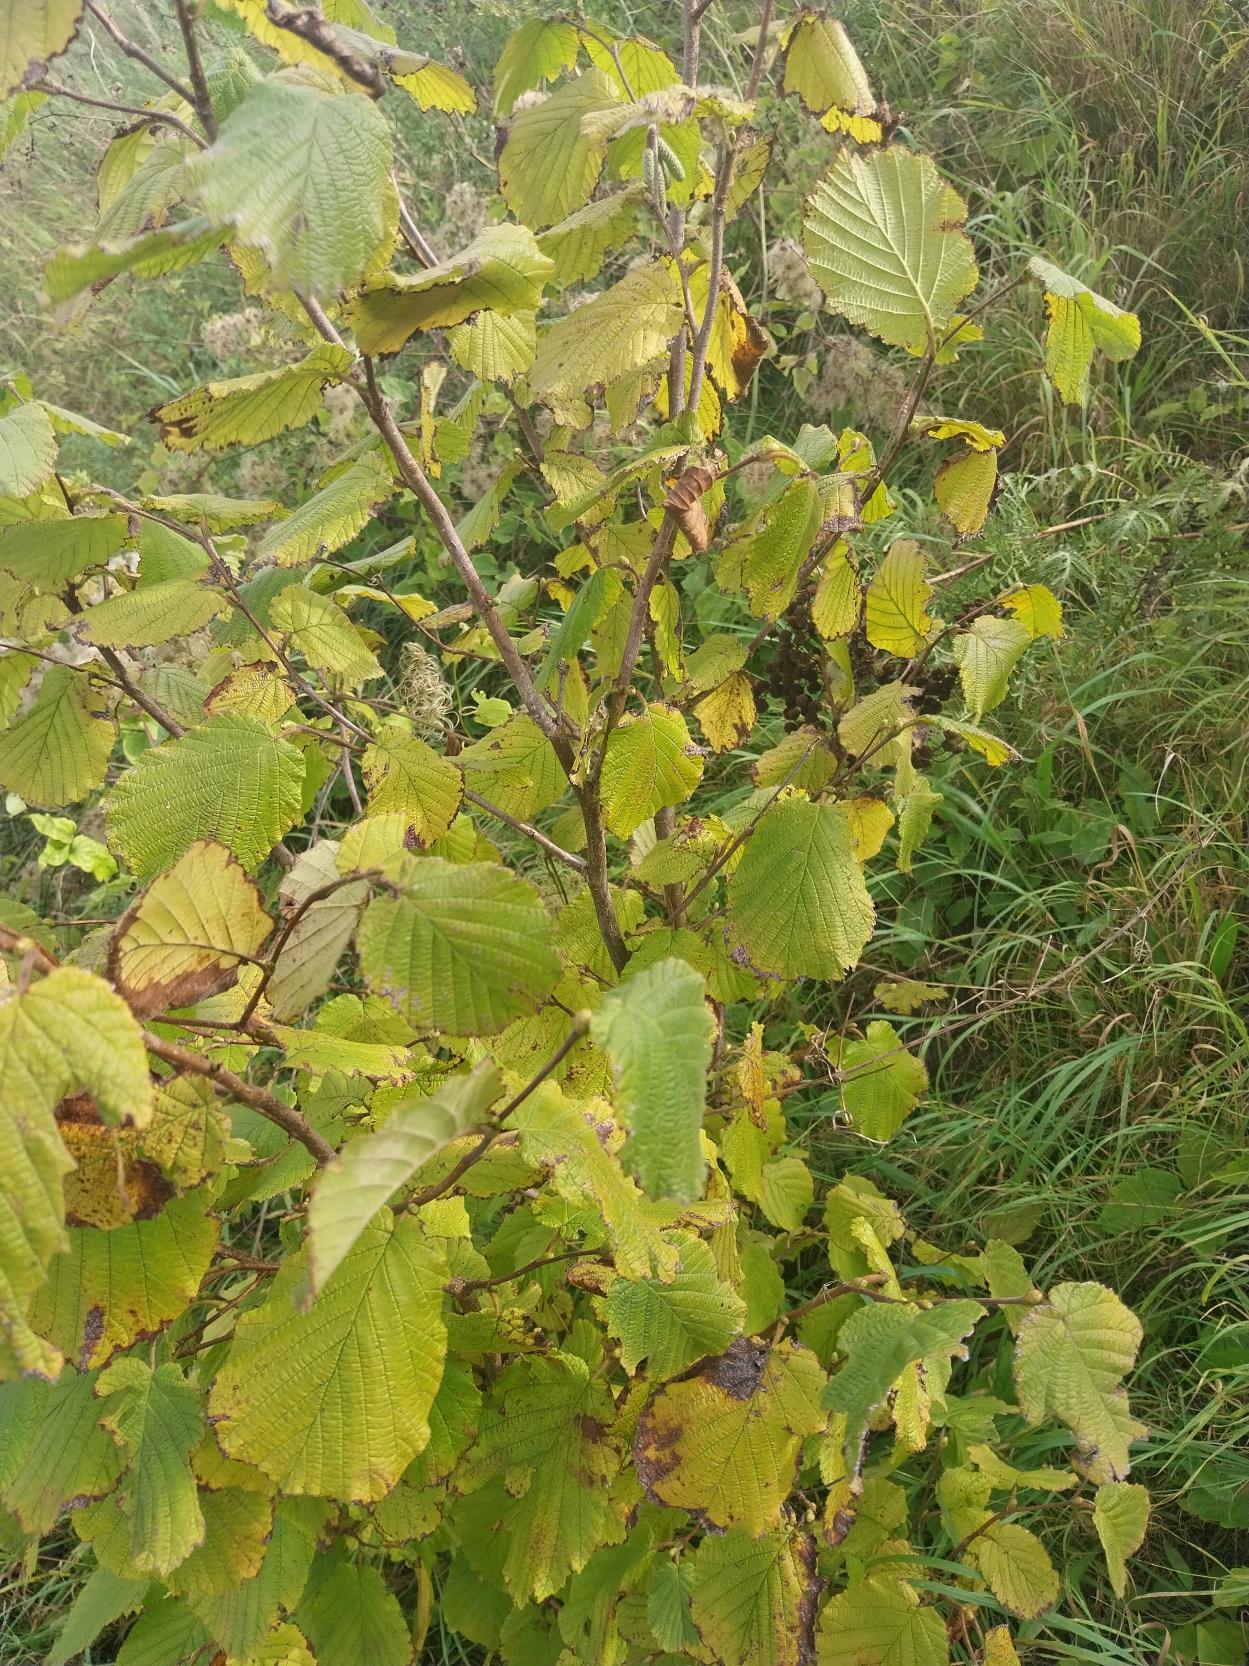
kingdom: Plantae
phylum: Tracheophyta
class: Magnoliopsida
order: Fagales
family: Betulaceae
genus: Corylus
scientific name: Corylus avellana
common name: Hassel
